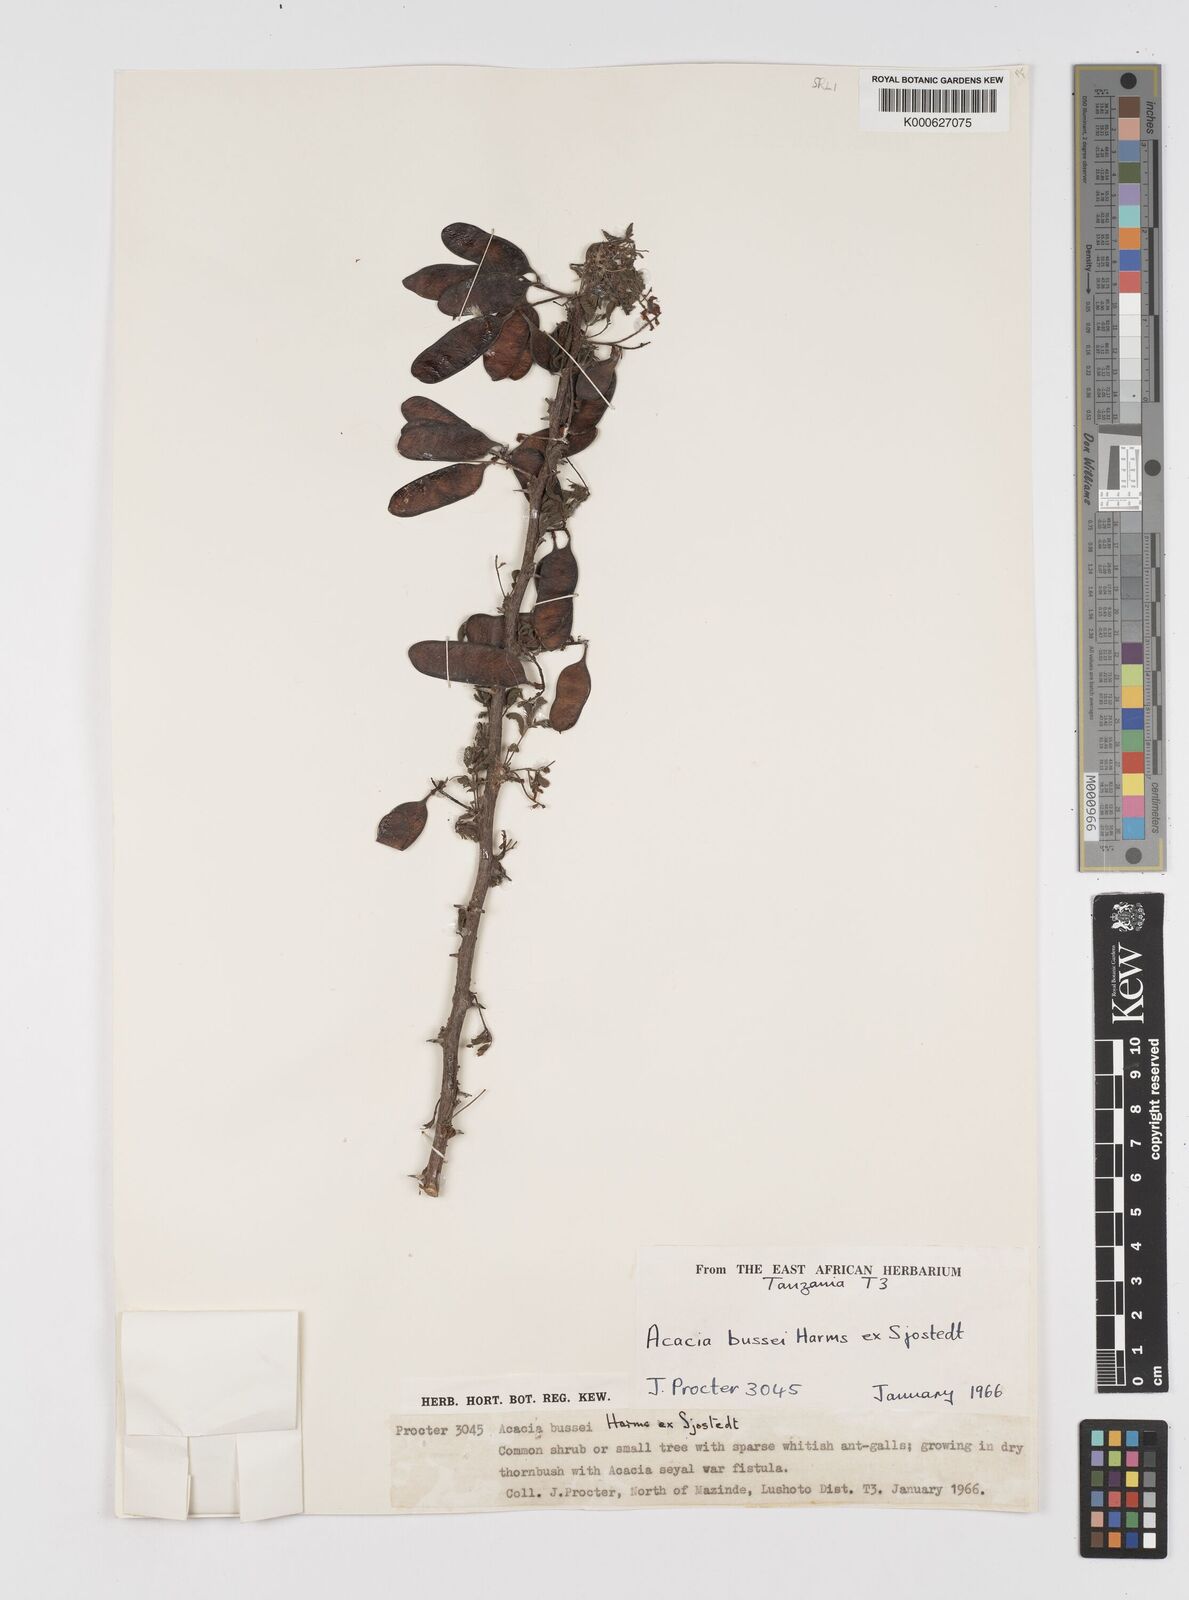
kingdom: Plantae
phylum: Tracheophyta
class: Magnoliopsida
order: Fabales
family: Fabaceae
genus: Vachellia
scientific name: Vachellia bussei
